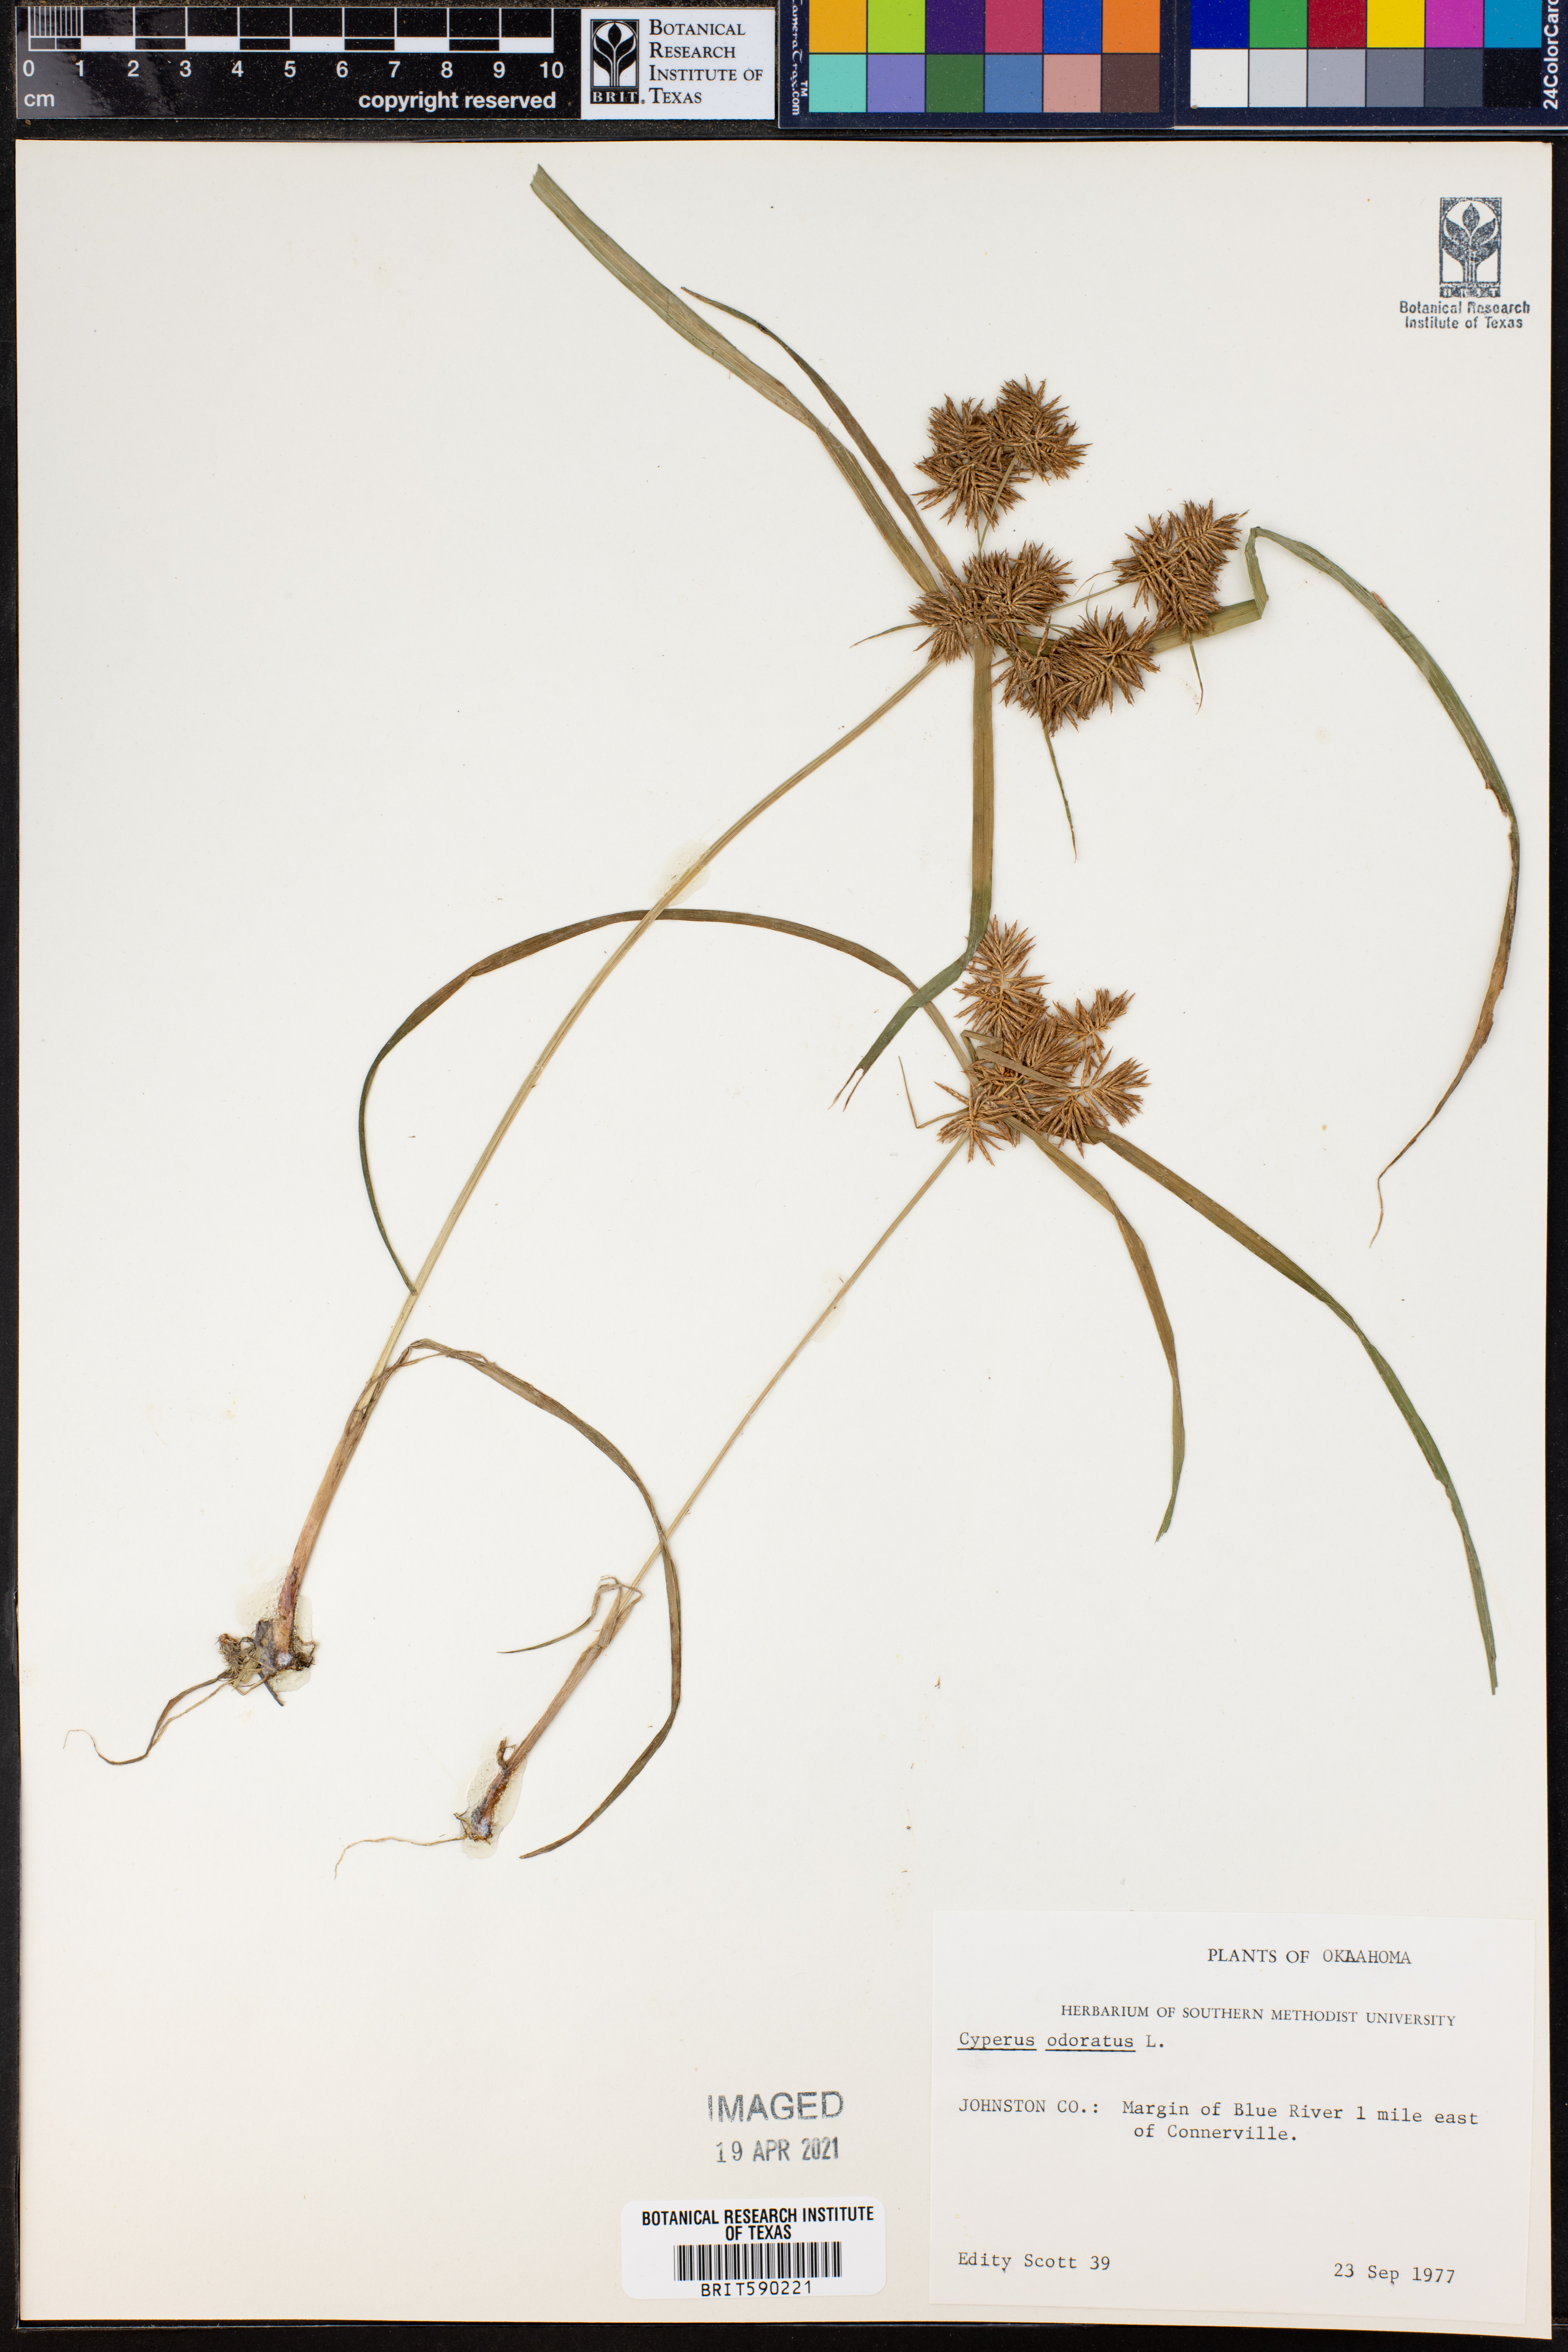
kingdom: Plantae
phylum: Tracheophyta
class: Liliopsida
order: Poales
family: Cyperaceae
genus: Cyperus
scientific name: Cyperus odoratus
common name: Fragrant flatsedge
